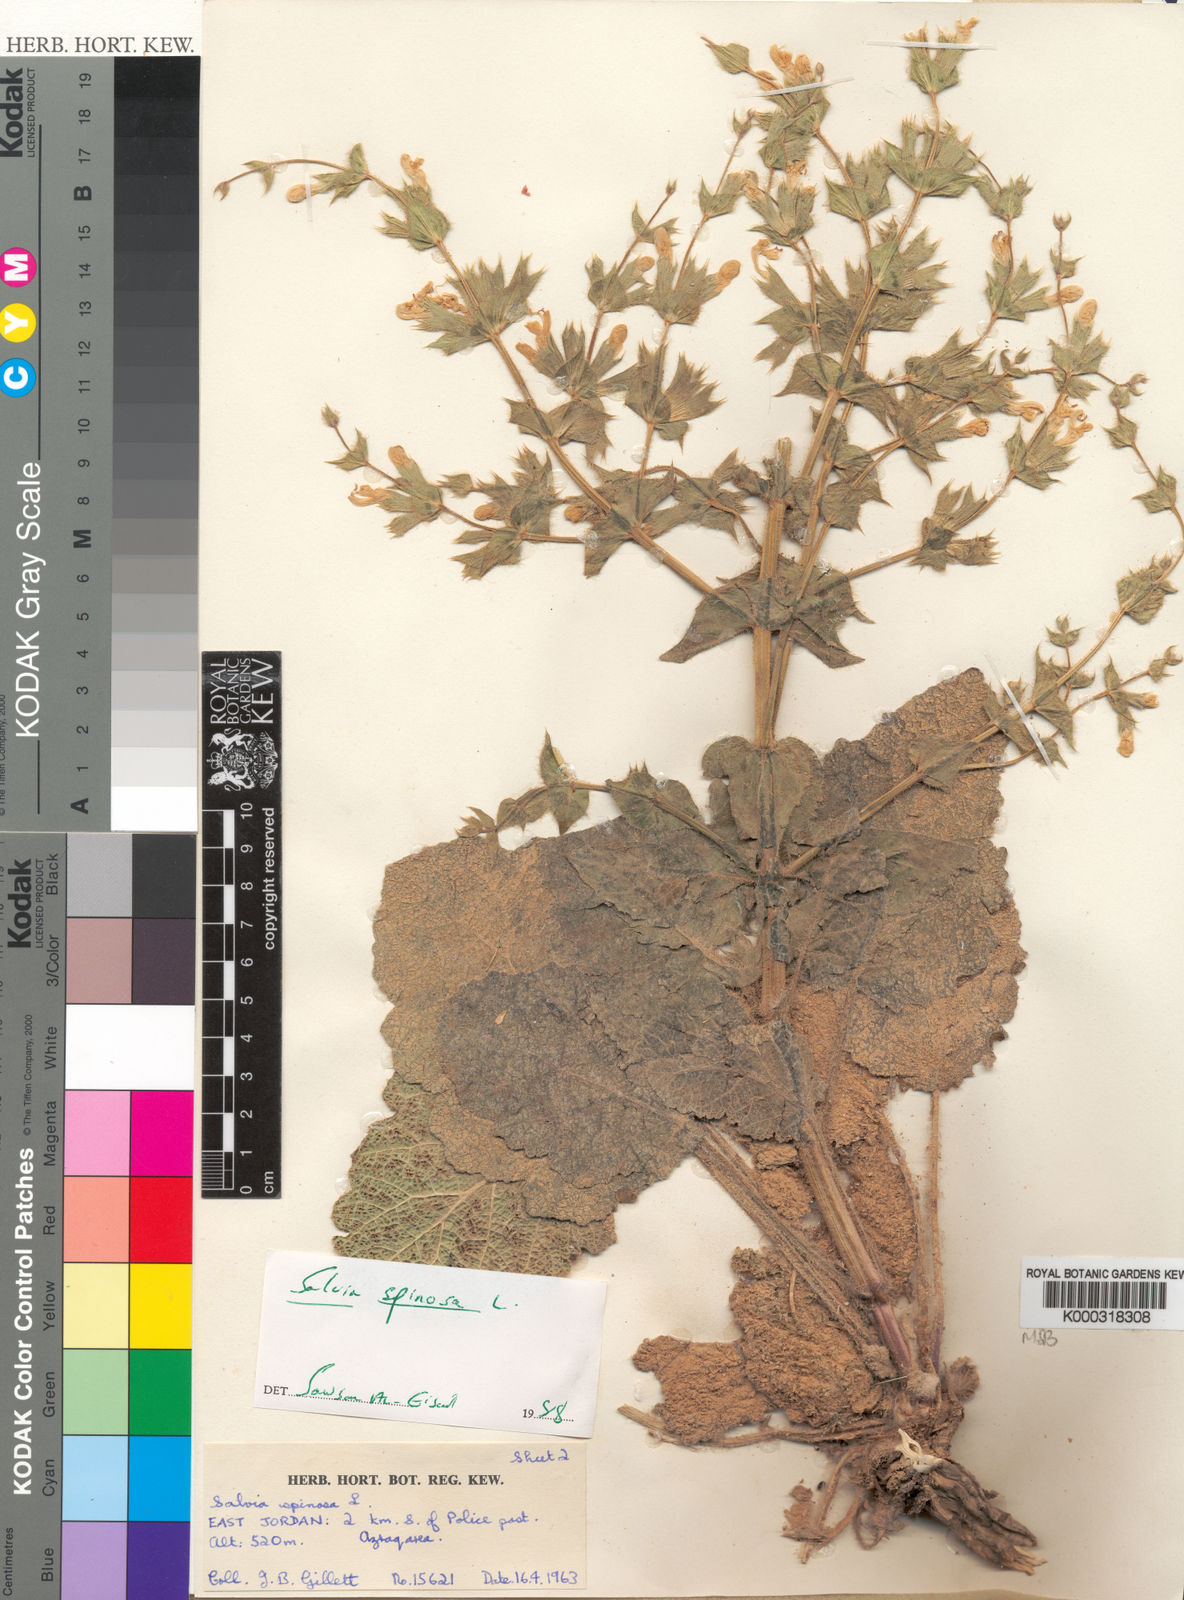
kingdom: Plantae
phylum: Tracheophyta
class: Magnoliopsida
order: Lamiales
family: Lamiaceae
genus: Salvia
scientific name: Salvia spinosa
